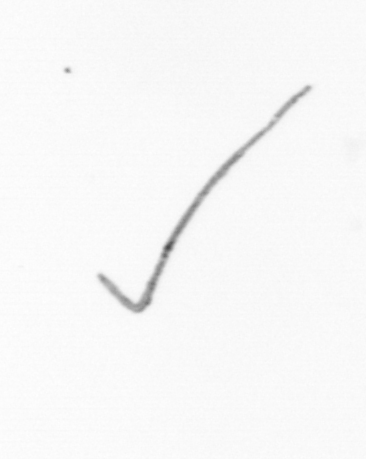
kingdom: Chromista
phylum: Ochrophyta
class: Bacillariophyceae
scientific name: Bacillariophyceae
